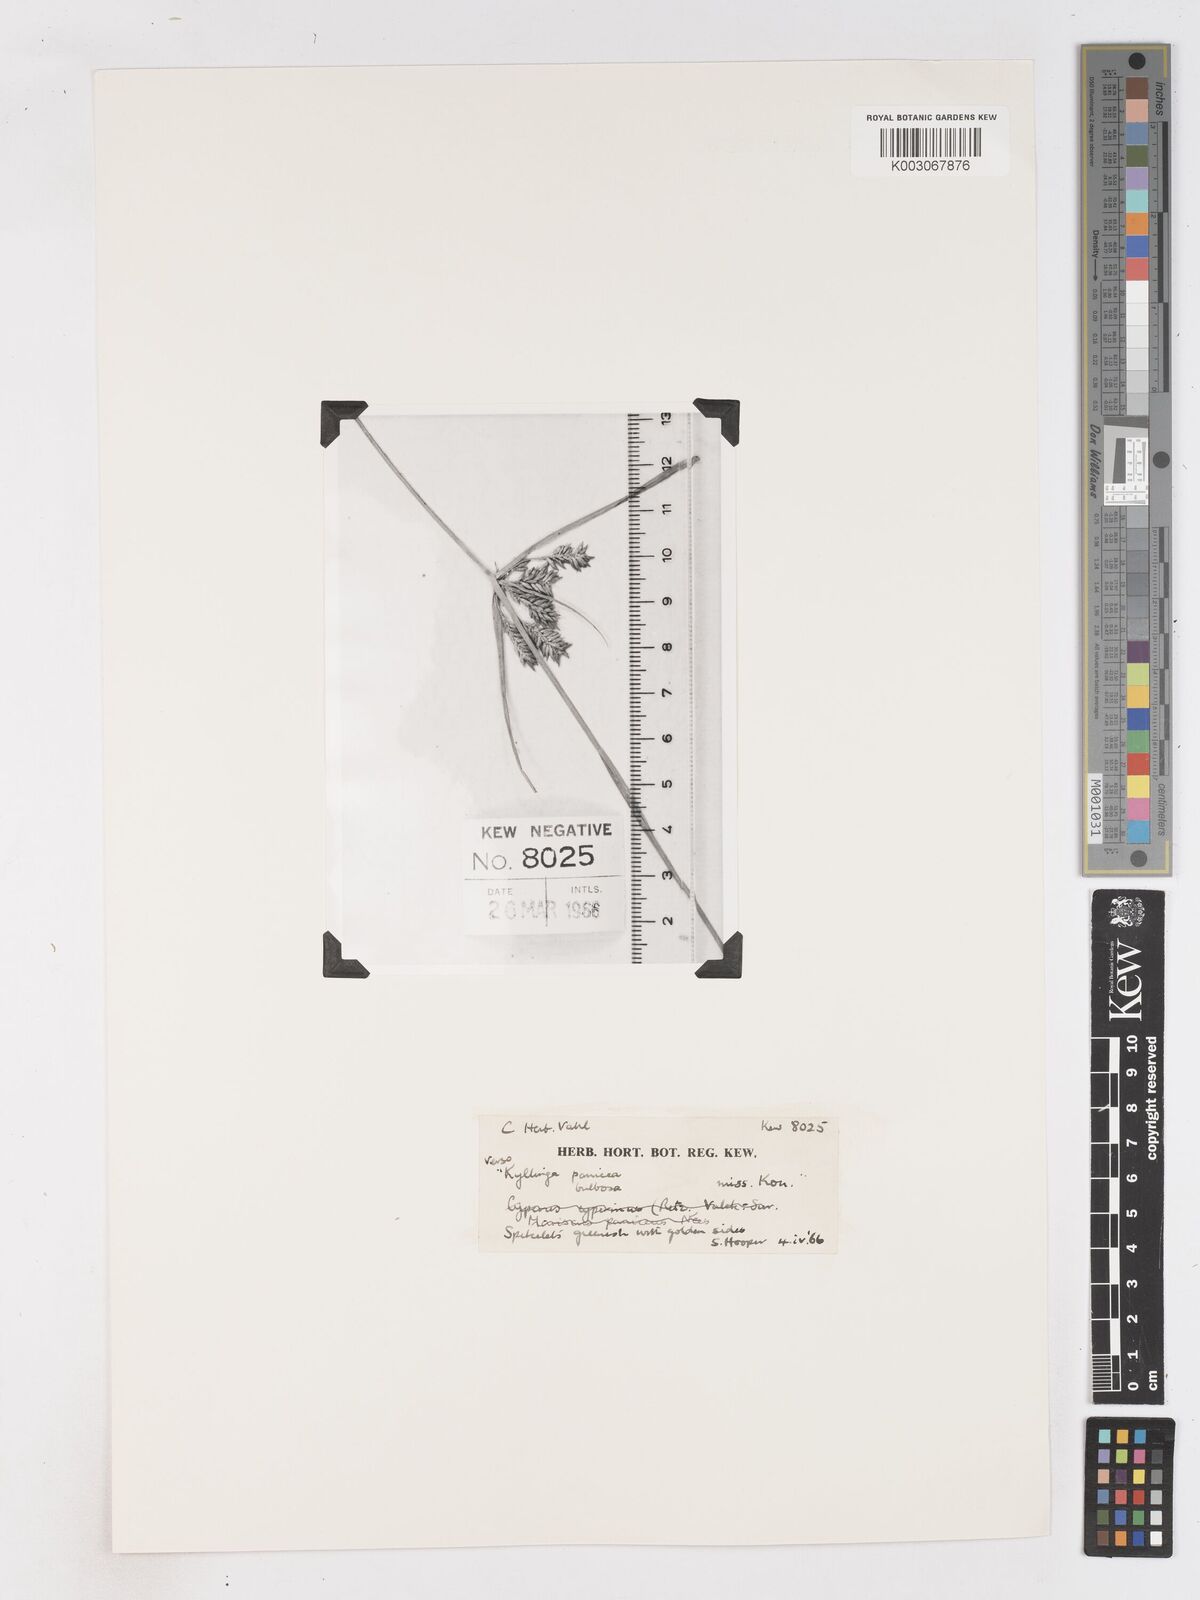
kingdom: Plantae
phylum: Tracheophyta
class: Liliopsida
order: Poales
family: Cyperaceae
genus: Cyperus
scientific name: Cyperus
